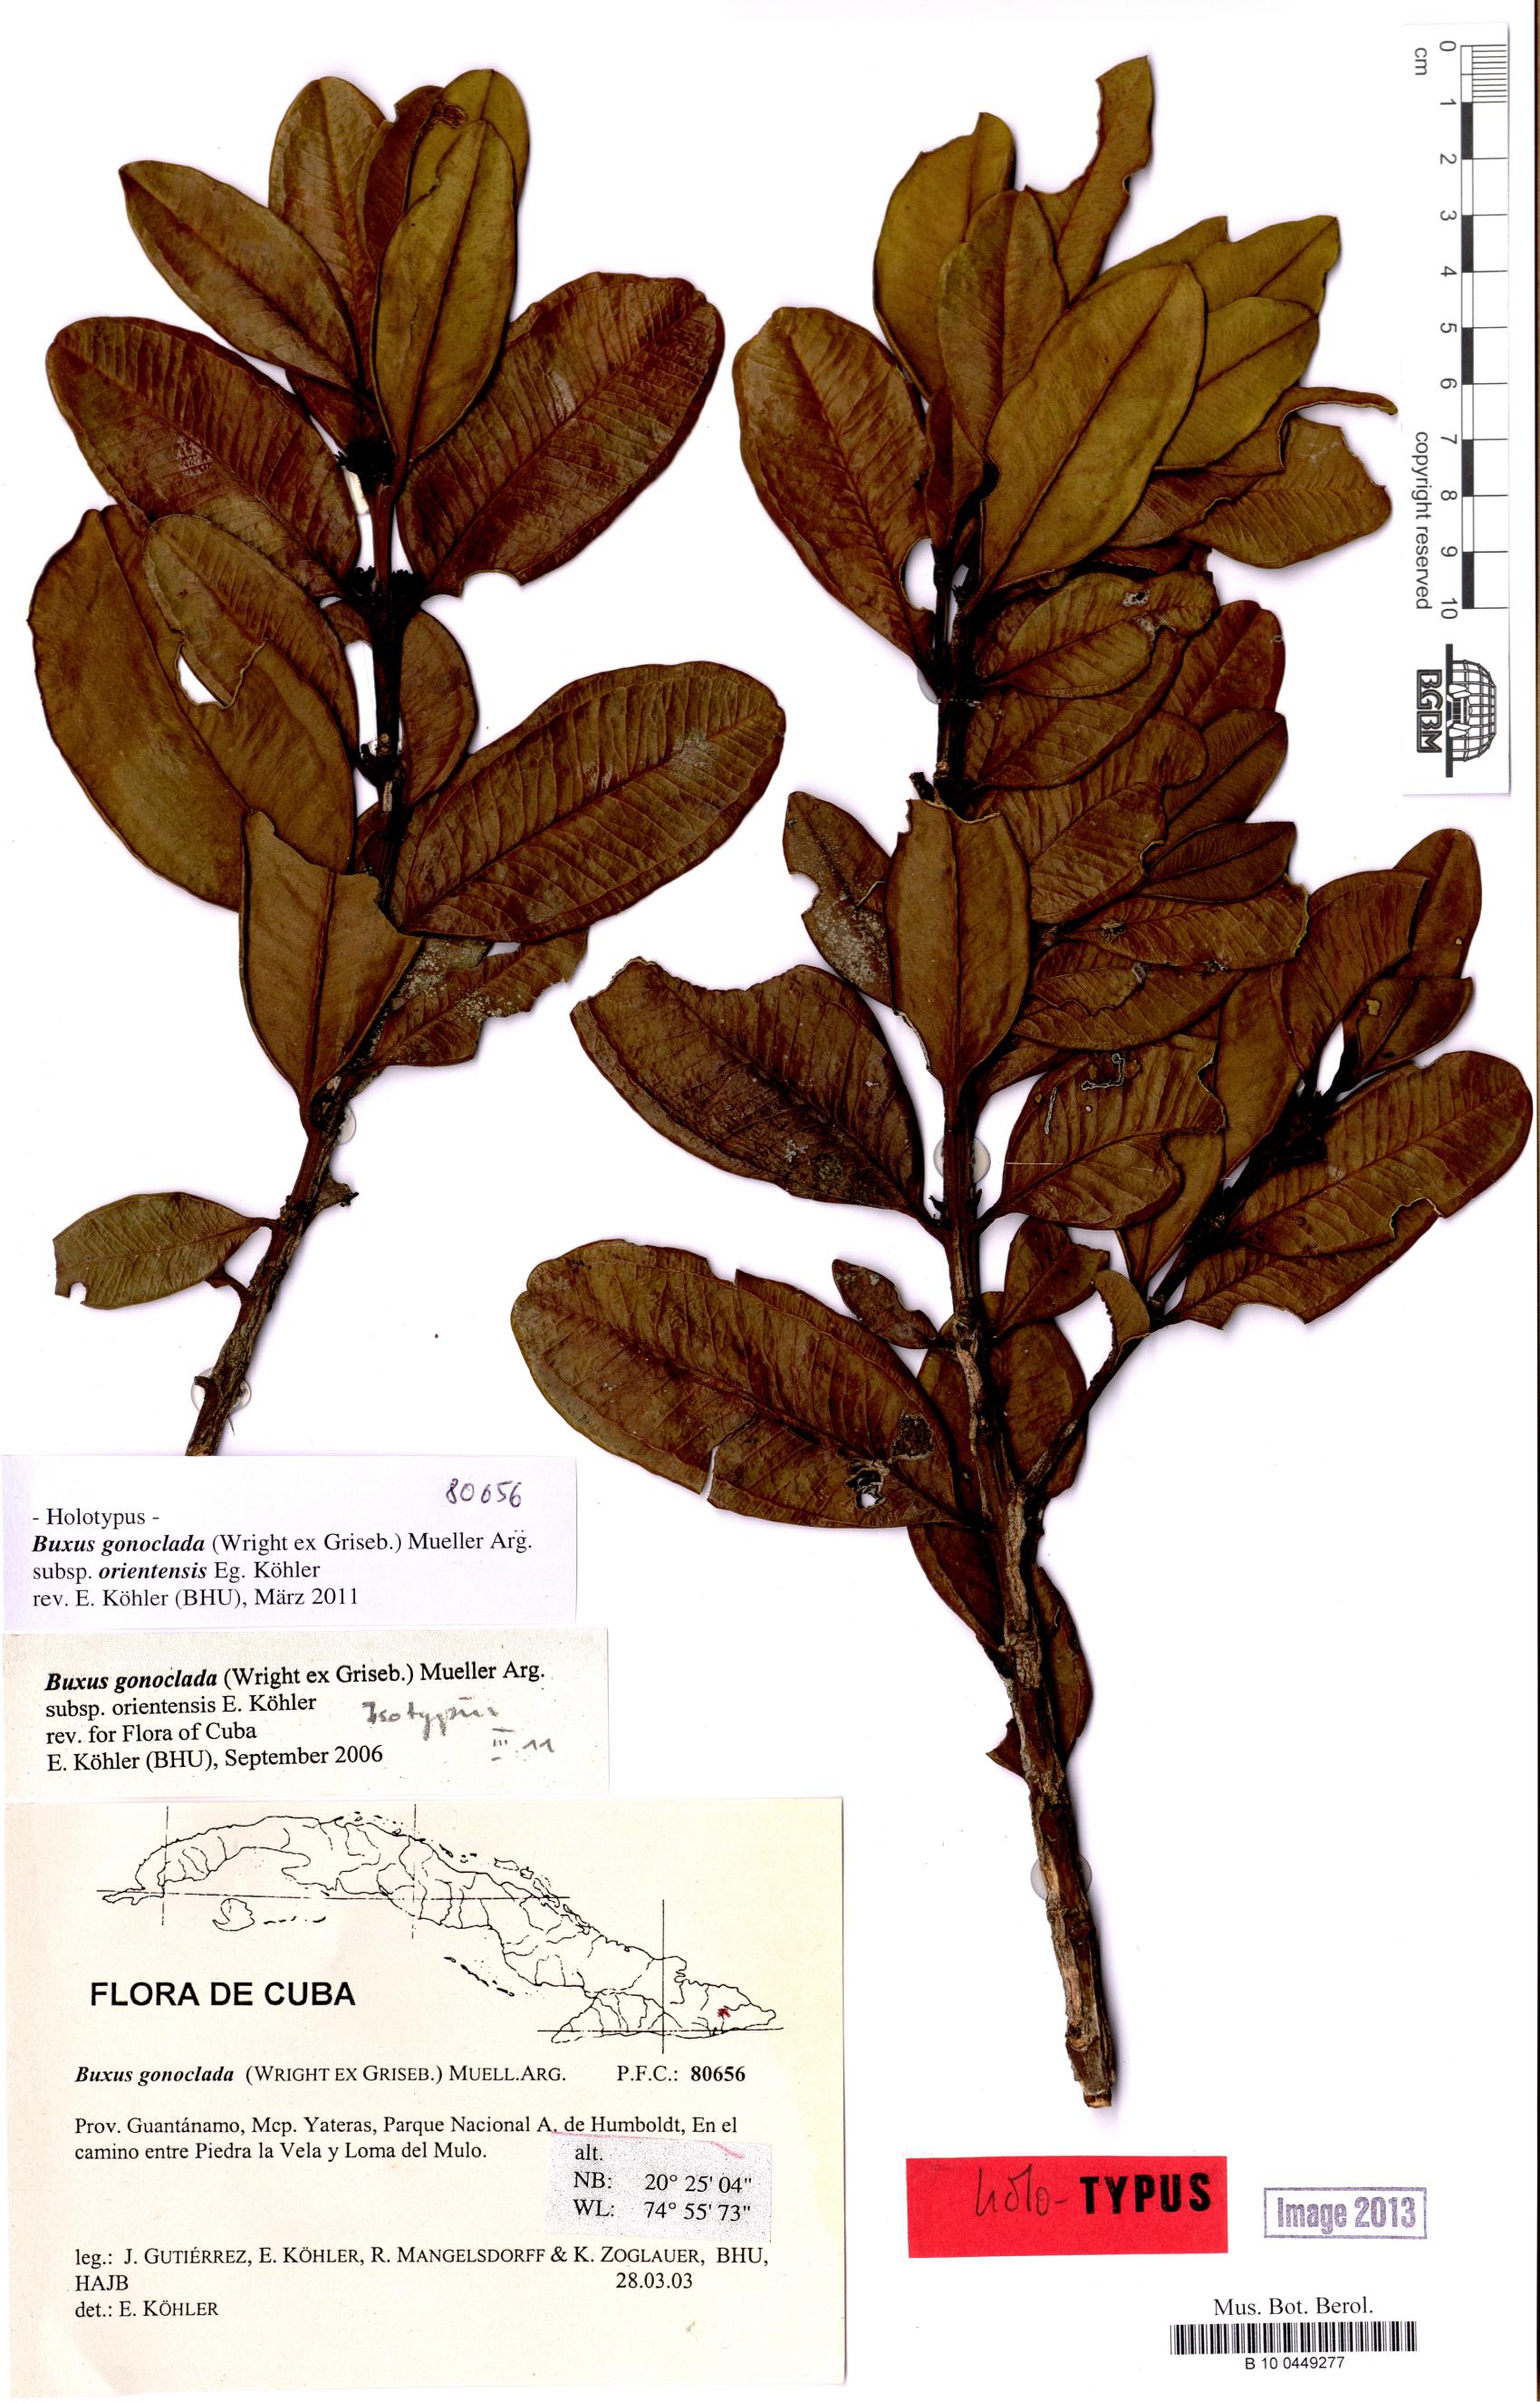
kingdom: Plantae
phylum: Tracheophyta
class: Magnoliopsida
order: Buxales
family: Buxaceae
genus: Buxus
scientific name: Buxus gonoclada
